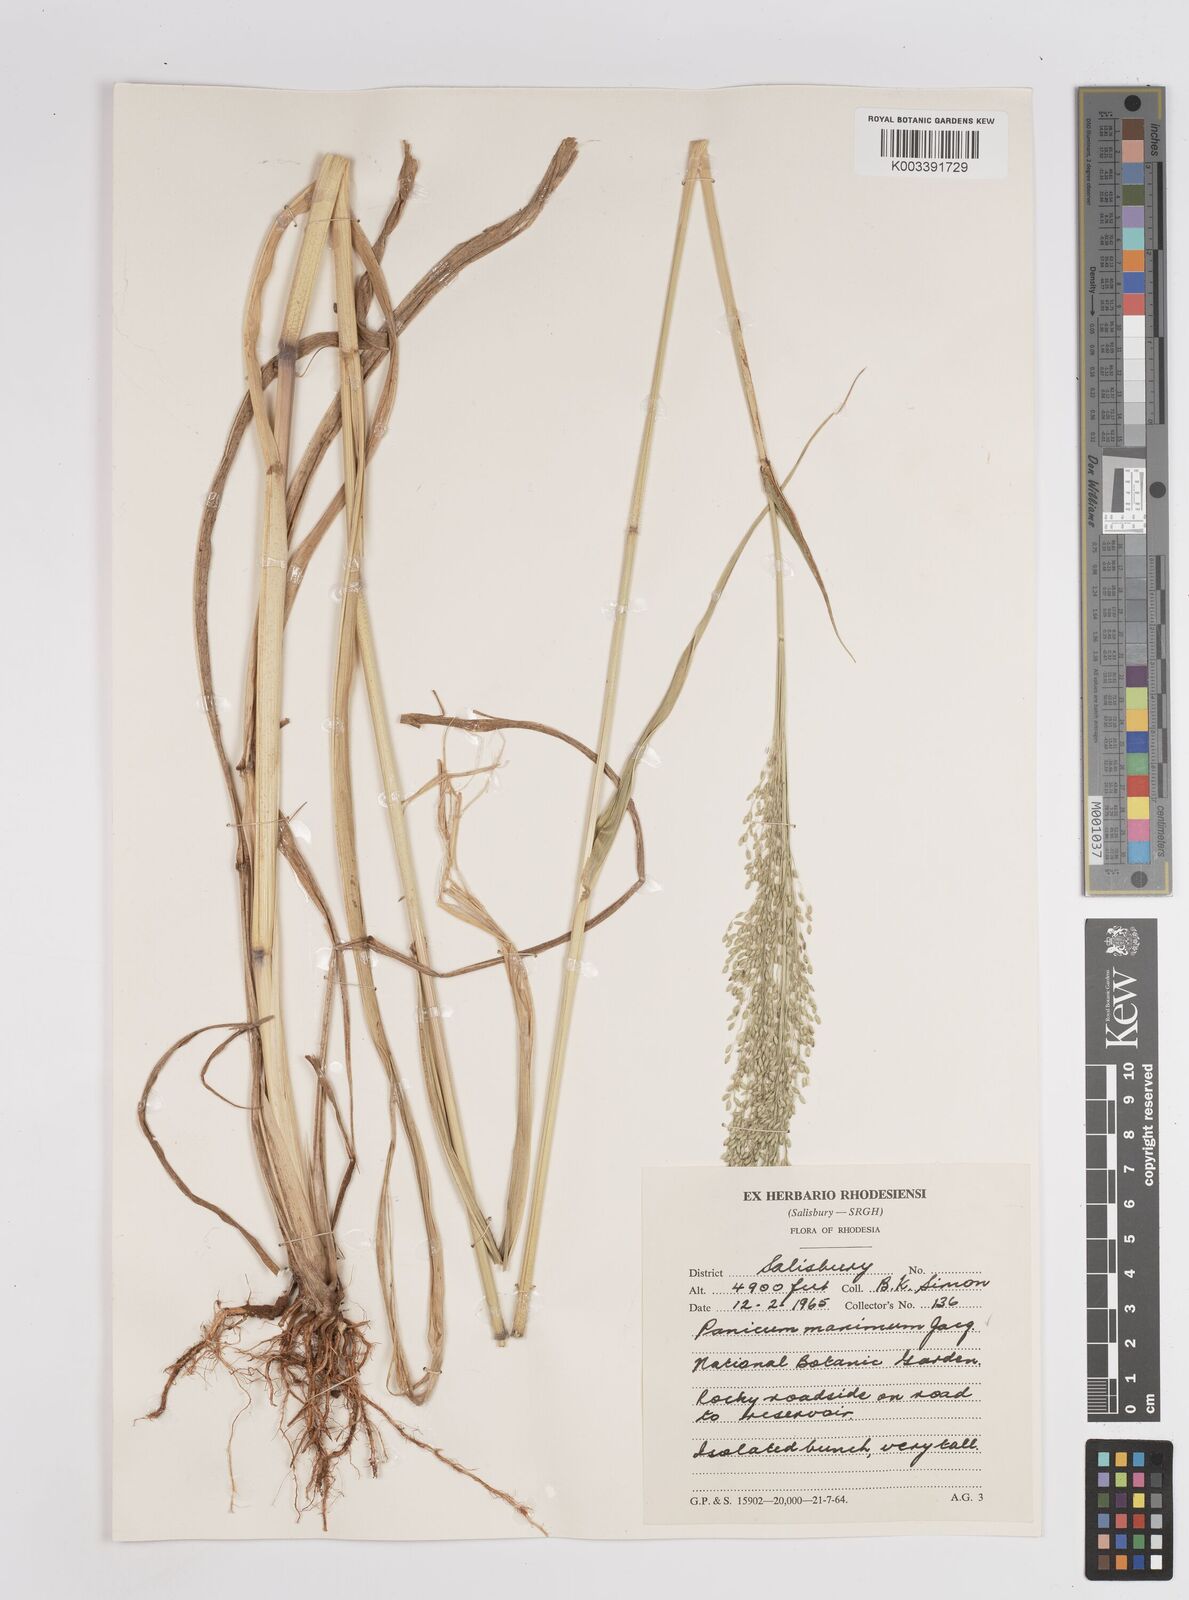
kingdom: Plantae
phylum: Tracheophyta
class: Liliopsida
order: Poales
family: Poaceae
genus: Megathyrsus
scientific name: Megathyrsus maximus
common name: Guineagrass
